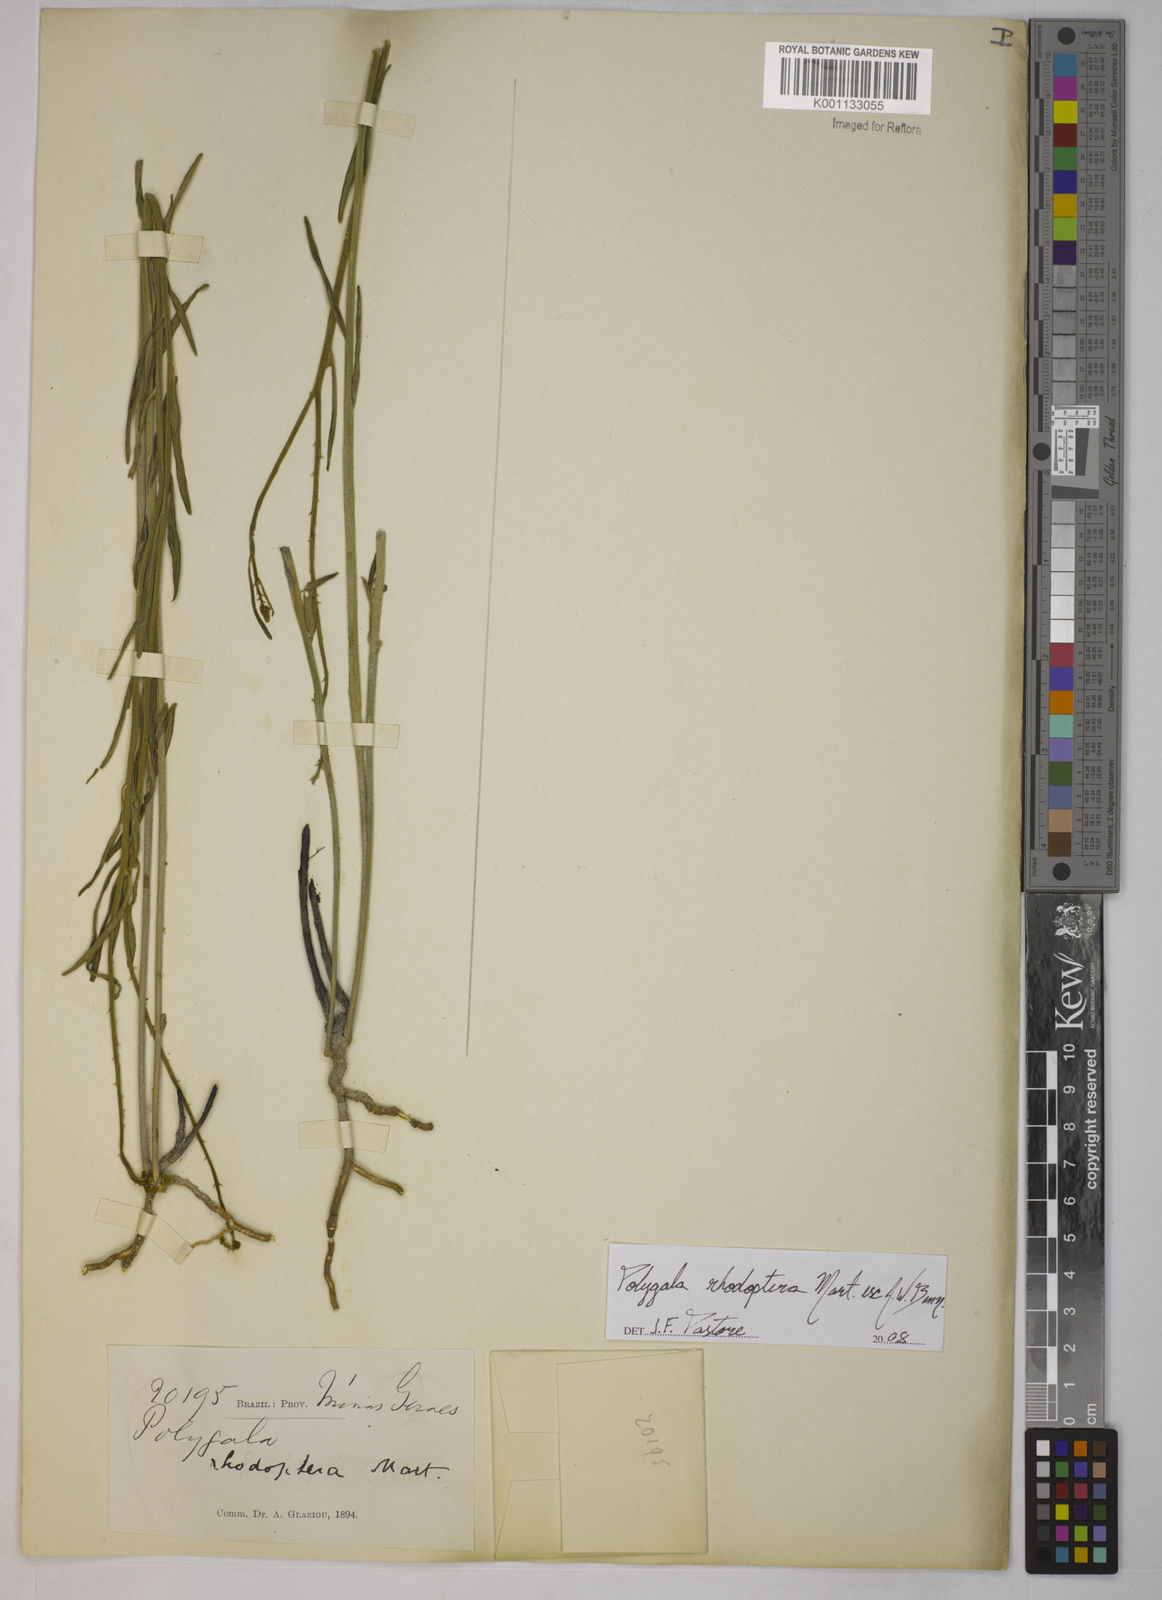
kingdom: Plantae
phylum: Tracheophyta
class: Magnoliopsida
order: Fabales
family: Polygalaceae
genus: Asemeia
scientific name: Asemeia rhodoptera
